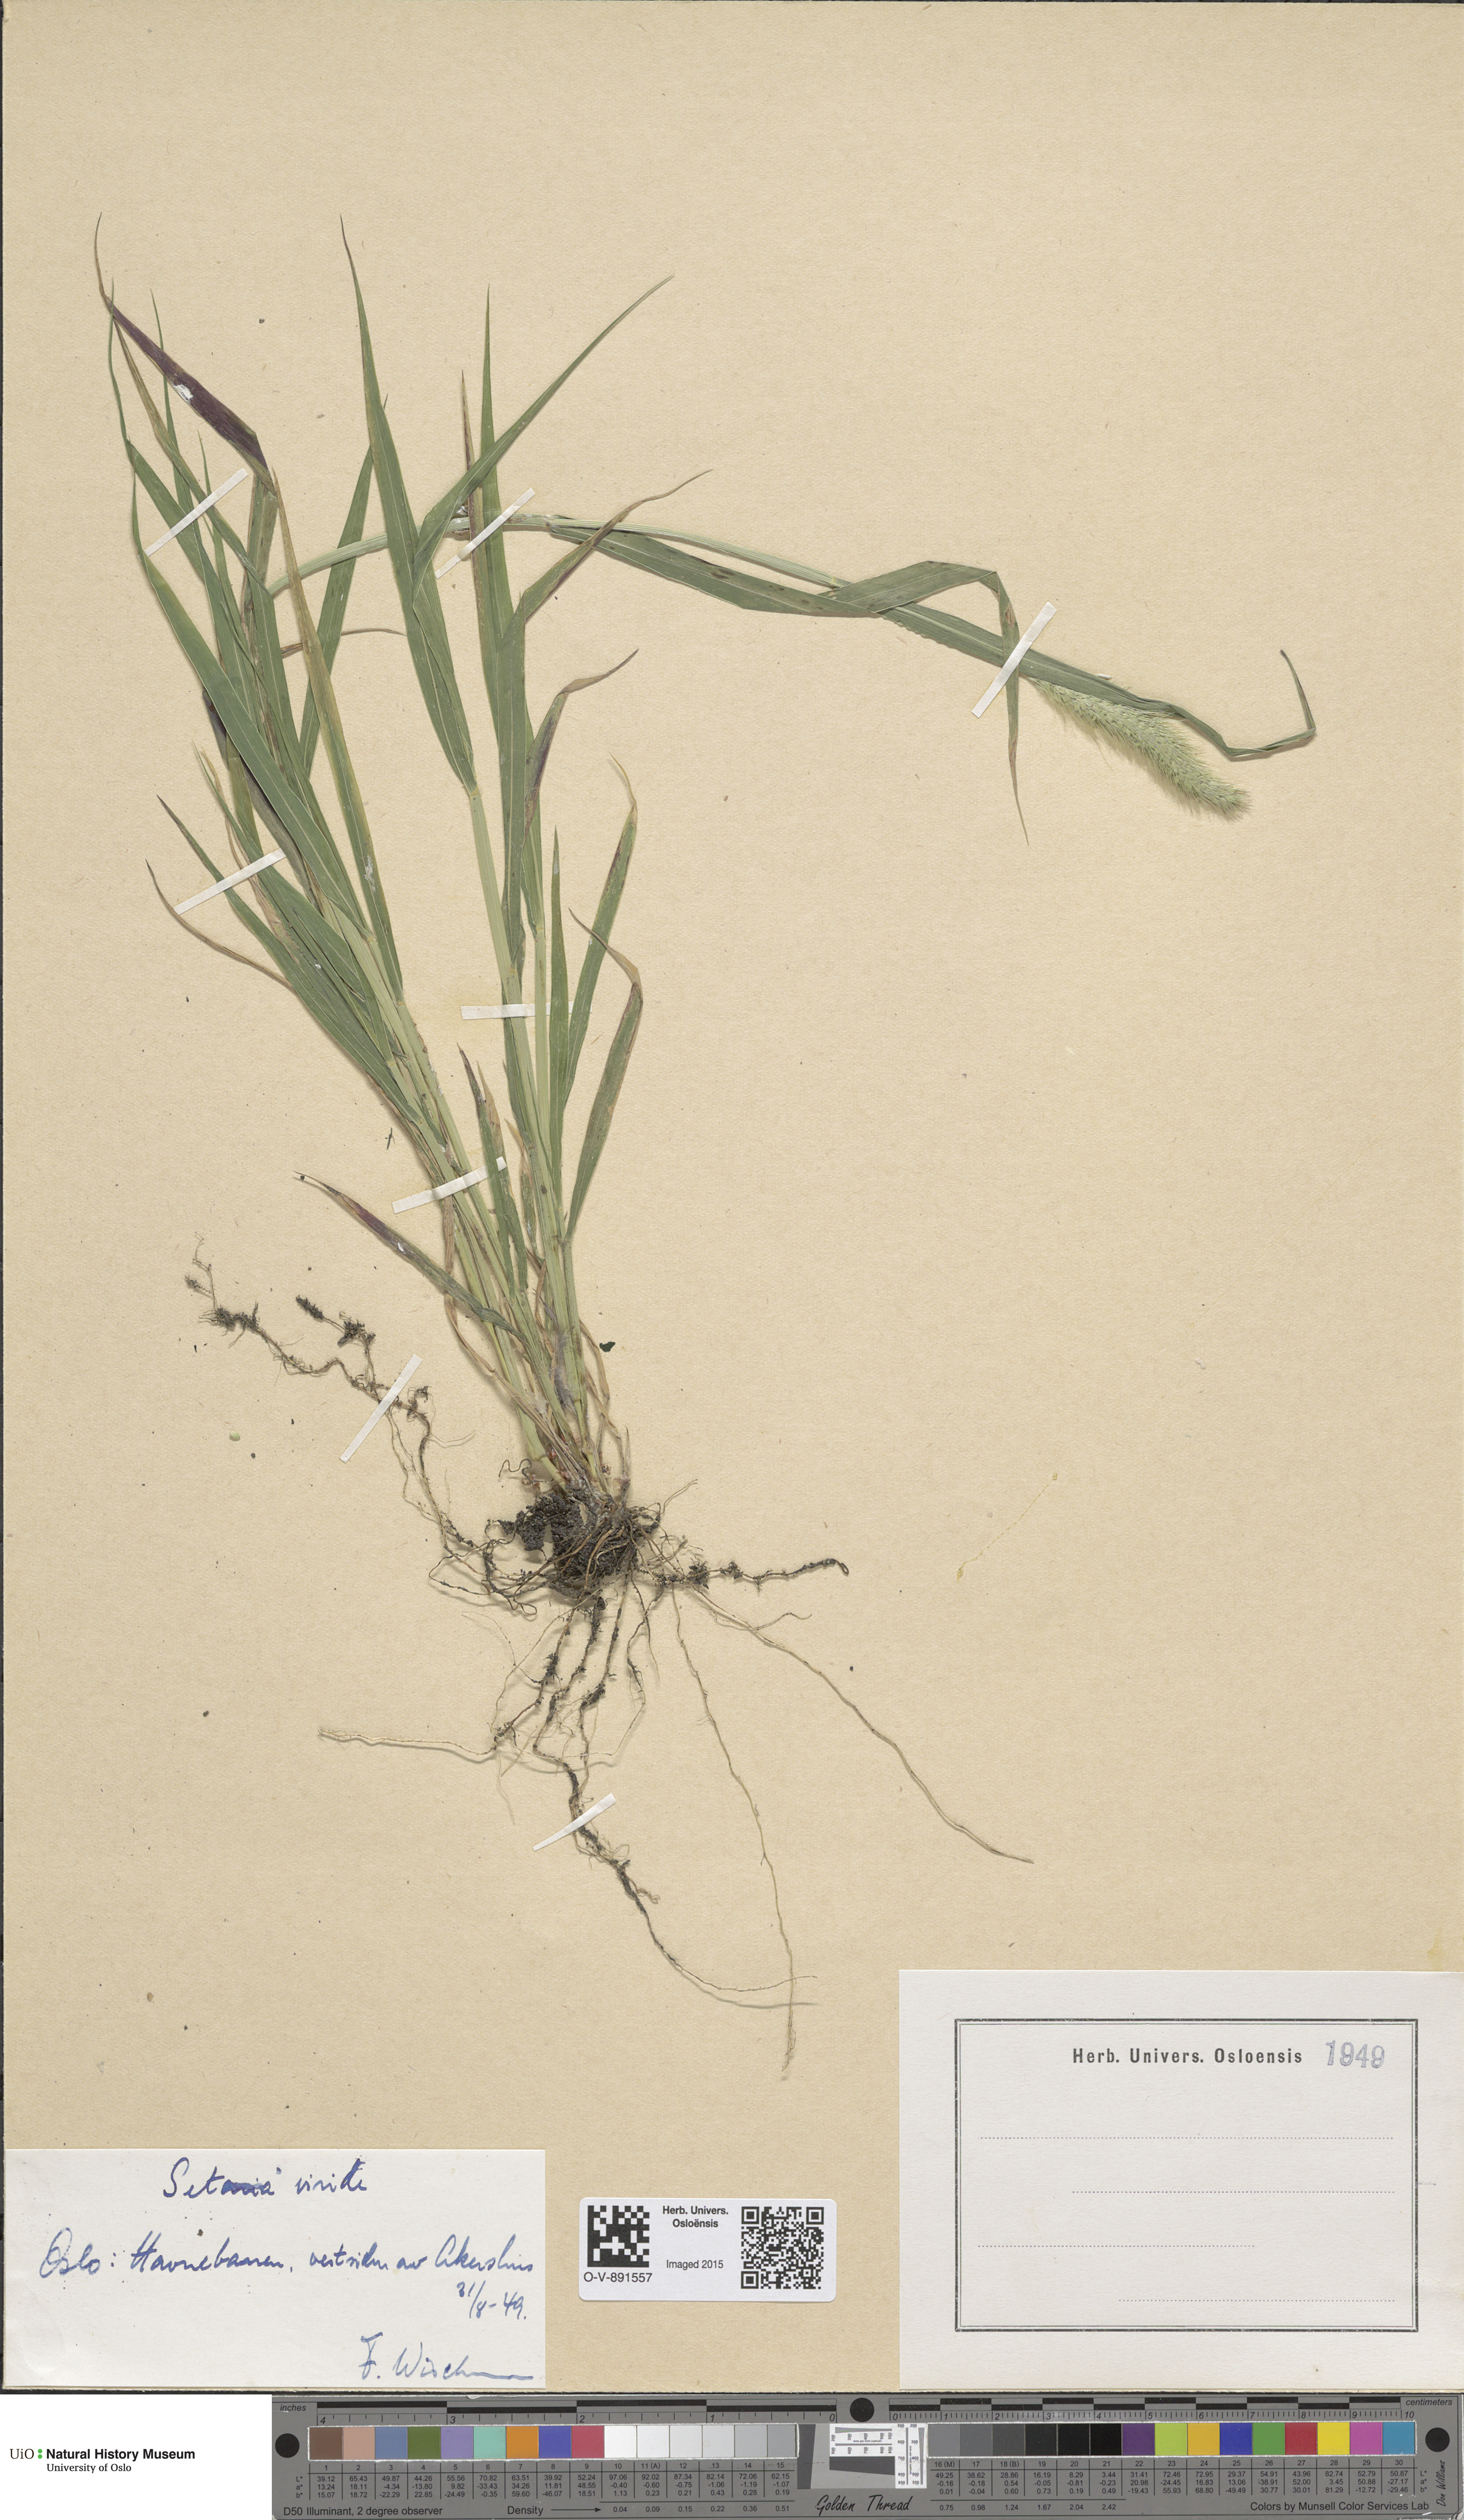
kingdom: Plantae
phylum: Tracheophyta
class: Liliopsida
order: Poales
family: Poaceae
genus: Setaria
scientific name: Setaria viridis
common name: Green bristlegrass
